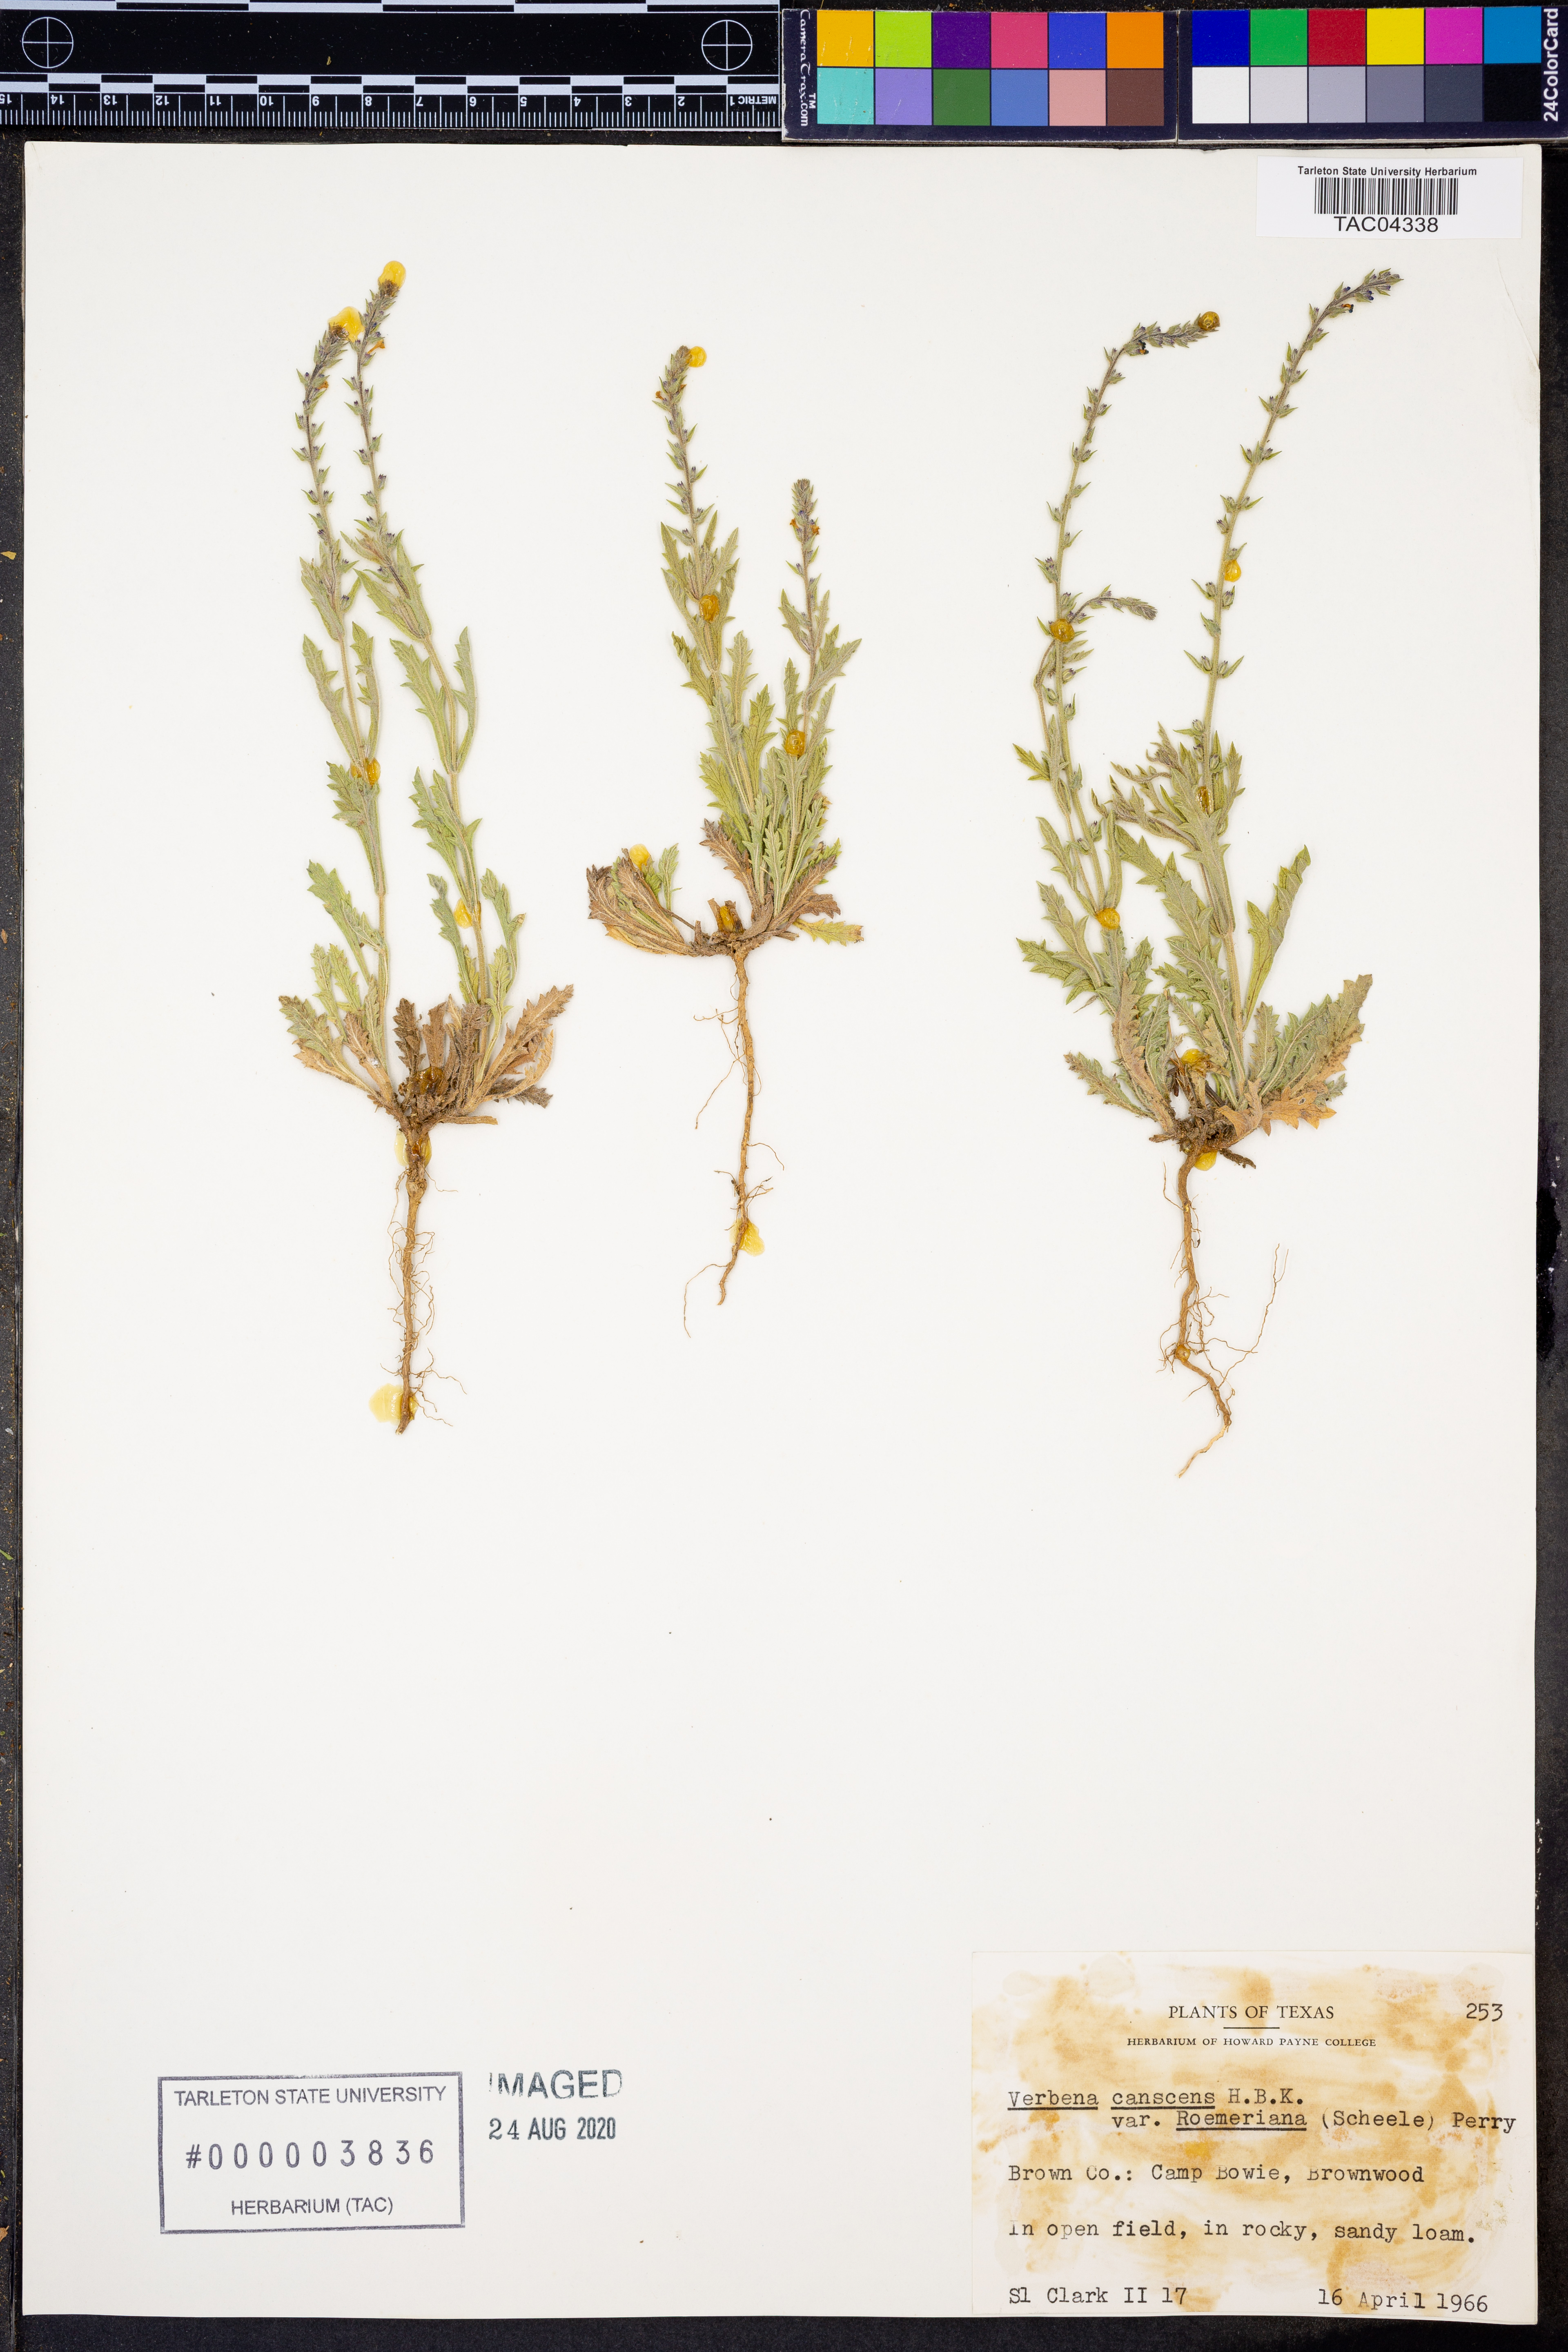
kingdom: Plantae
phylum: Tracheophyta
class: Magnoliopsida
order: Lamiales
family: Verbenaceae
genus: Verbena
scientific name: Verbena canescens
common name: Gray vervain
